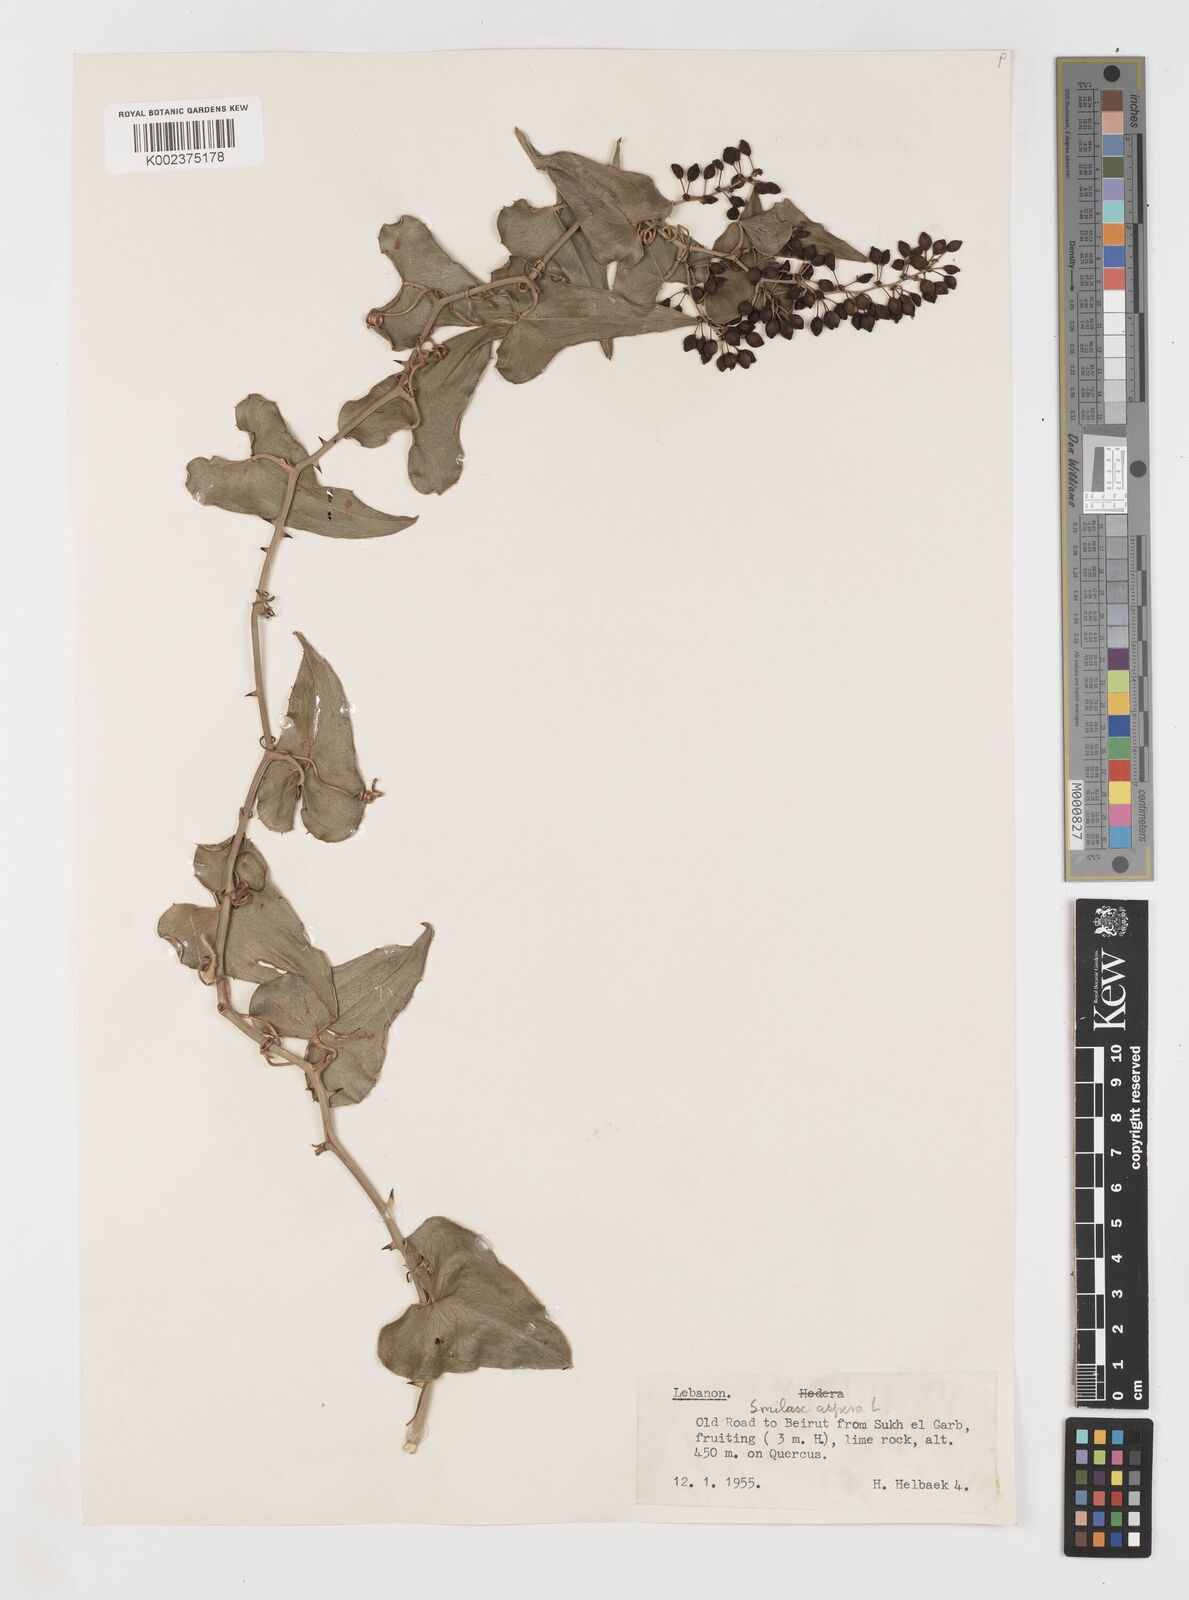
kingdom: Plantae
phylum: Tracheophyta
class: Liliopsida
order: Liliales
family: Smilacaceae
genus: Smilax
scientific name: Smilax aspera
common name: Common smilax
